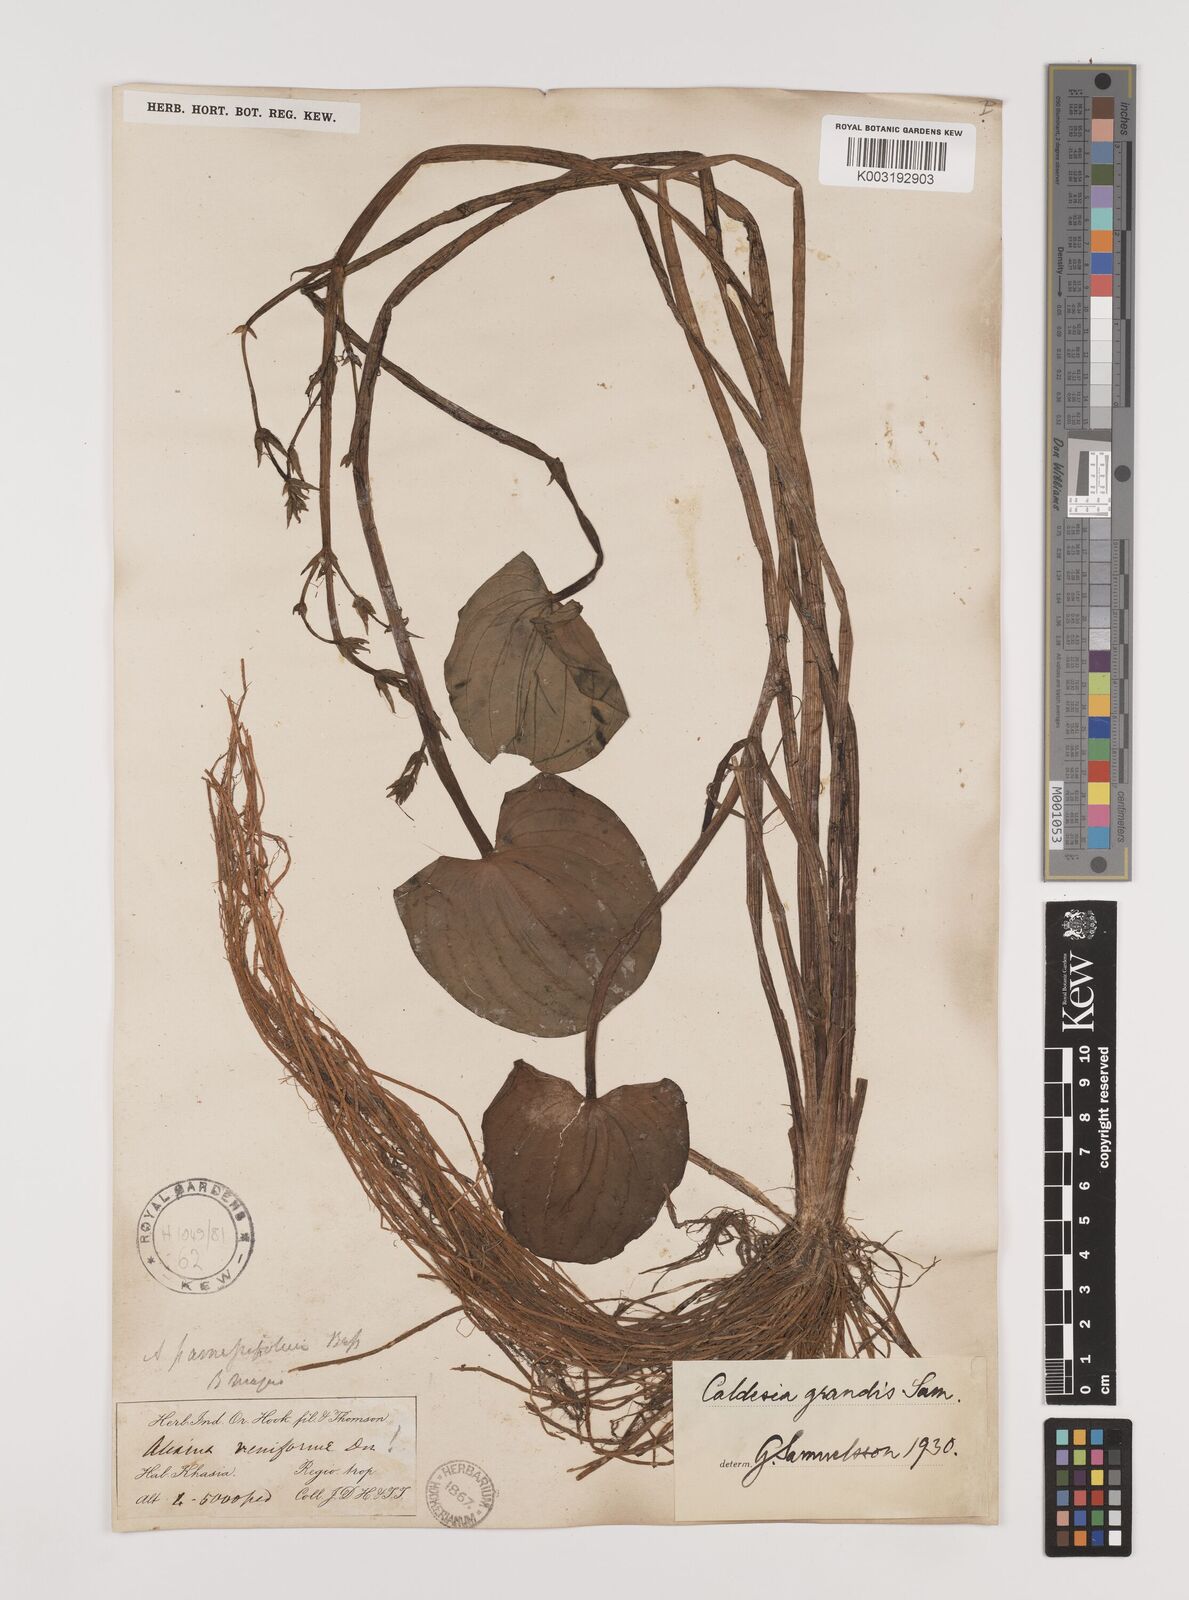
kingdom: Plantae
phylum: Tracheophyta
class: Liliopsida
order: Alismatales
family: Alismataceae
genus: Caldesia
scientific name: Caldesia grandis
